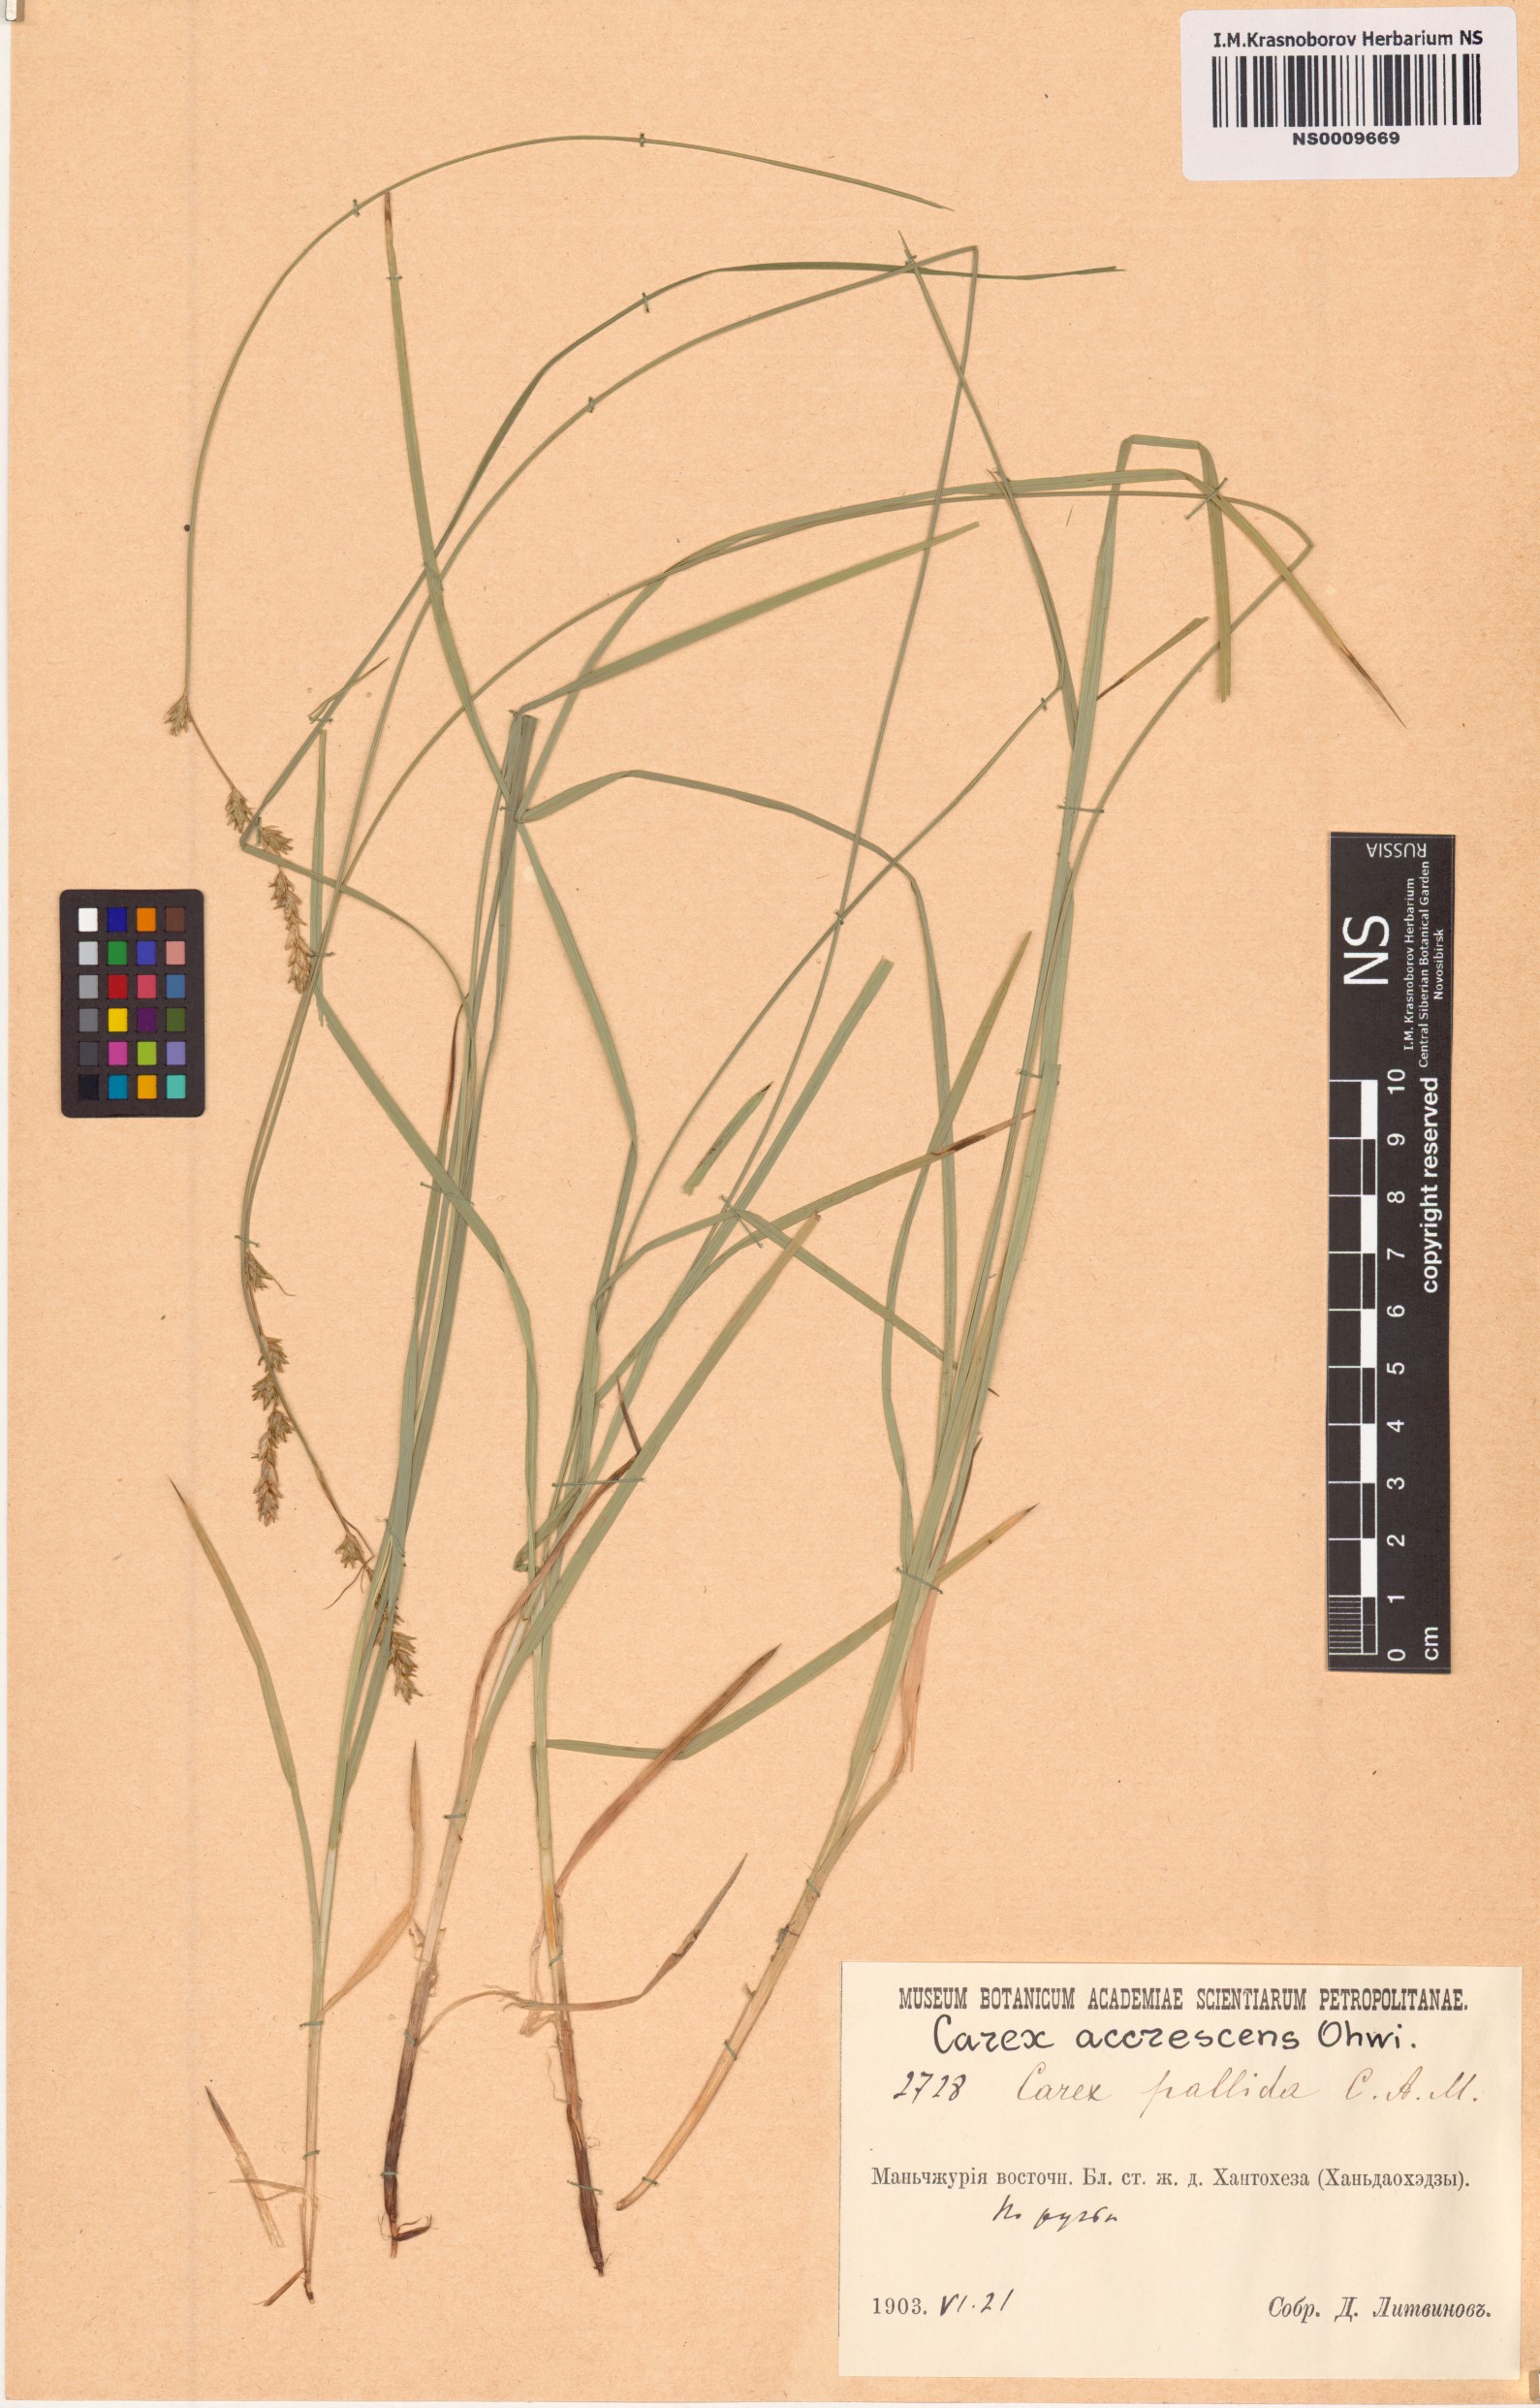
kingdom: Plantae
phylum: Tracheophyta
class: Liliopsida
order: Poales
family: Cyperaceae
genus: Carex
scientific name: Carex accrescens
